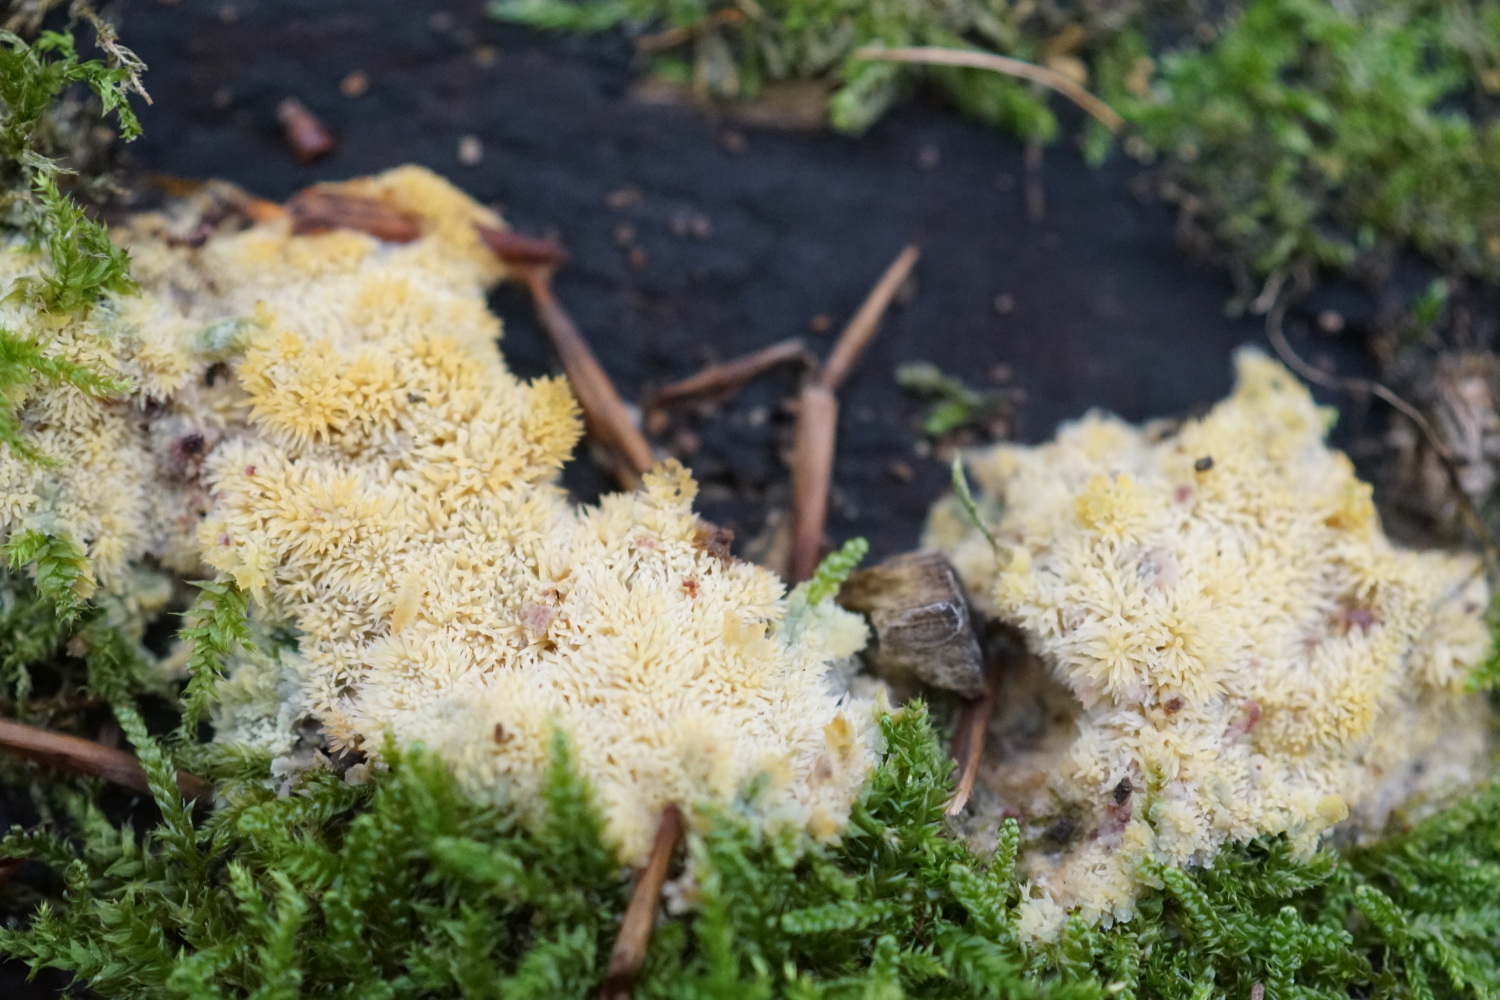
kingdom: Fungi
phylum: Basidiomycota
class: Agaricomycetes
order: Polyporales
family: Meruliaceae
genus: Mycoacia
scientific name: Mycoacia uda
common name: citrongul vokspig
